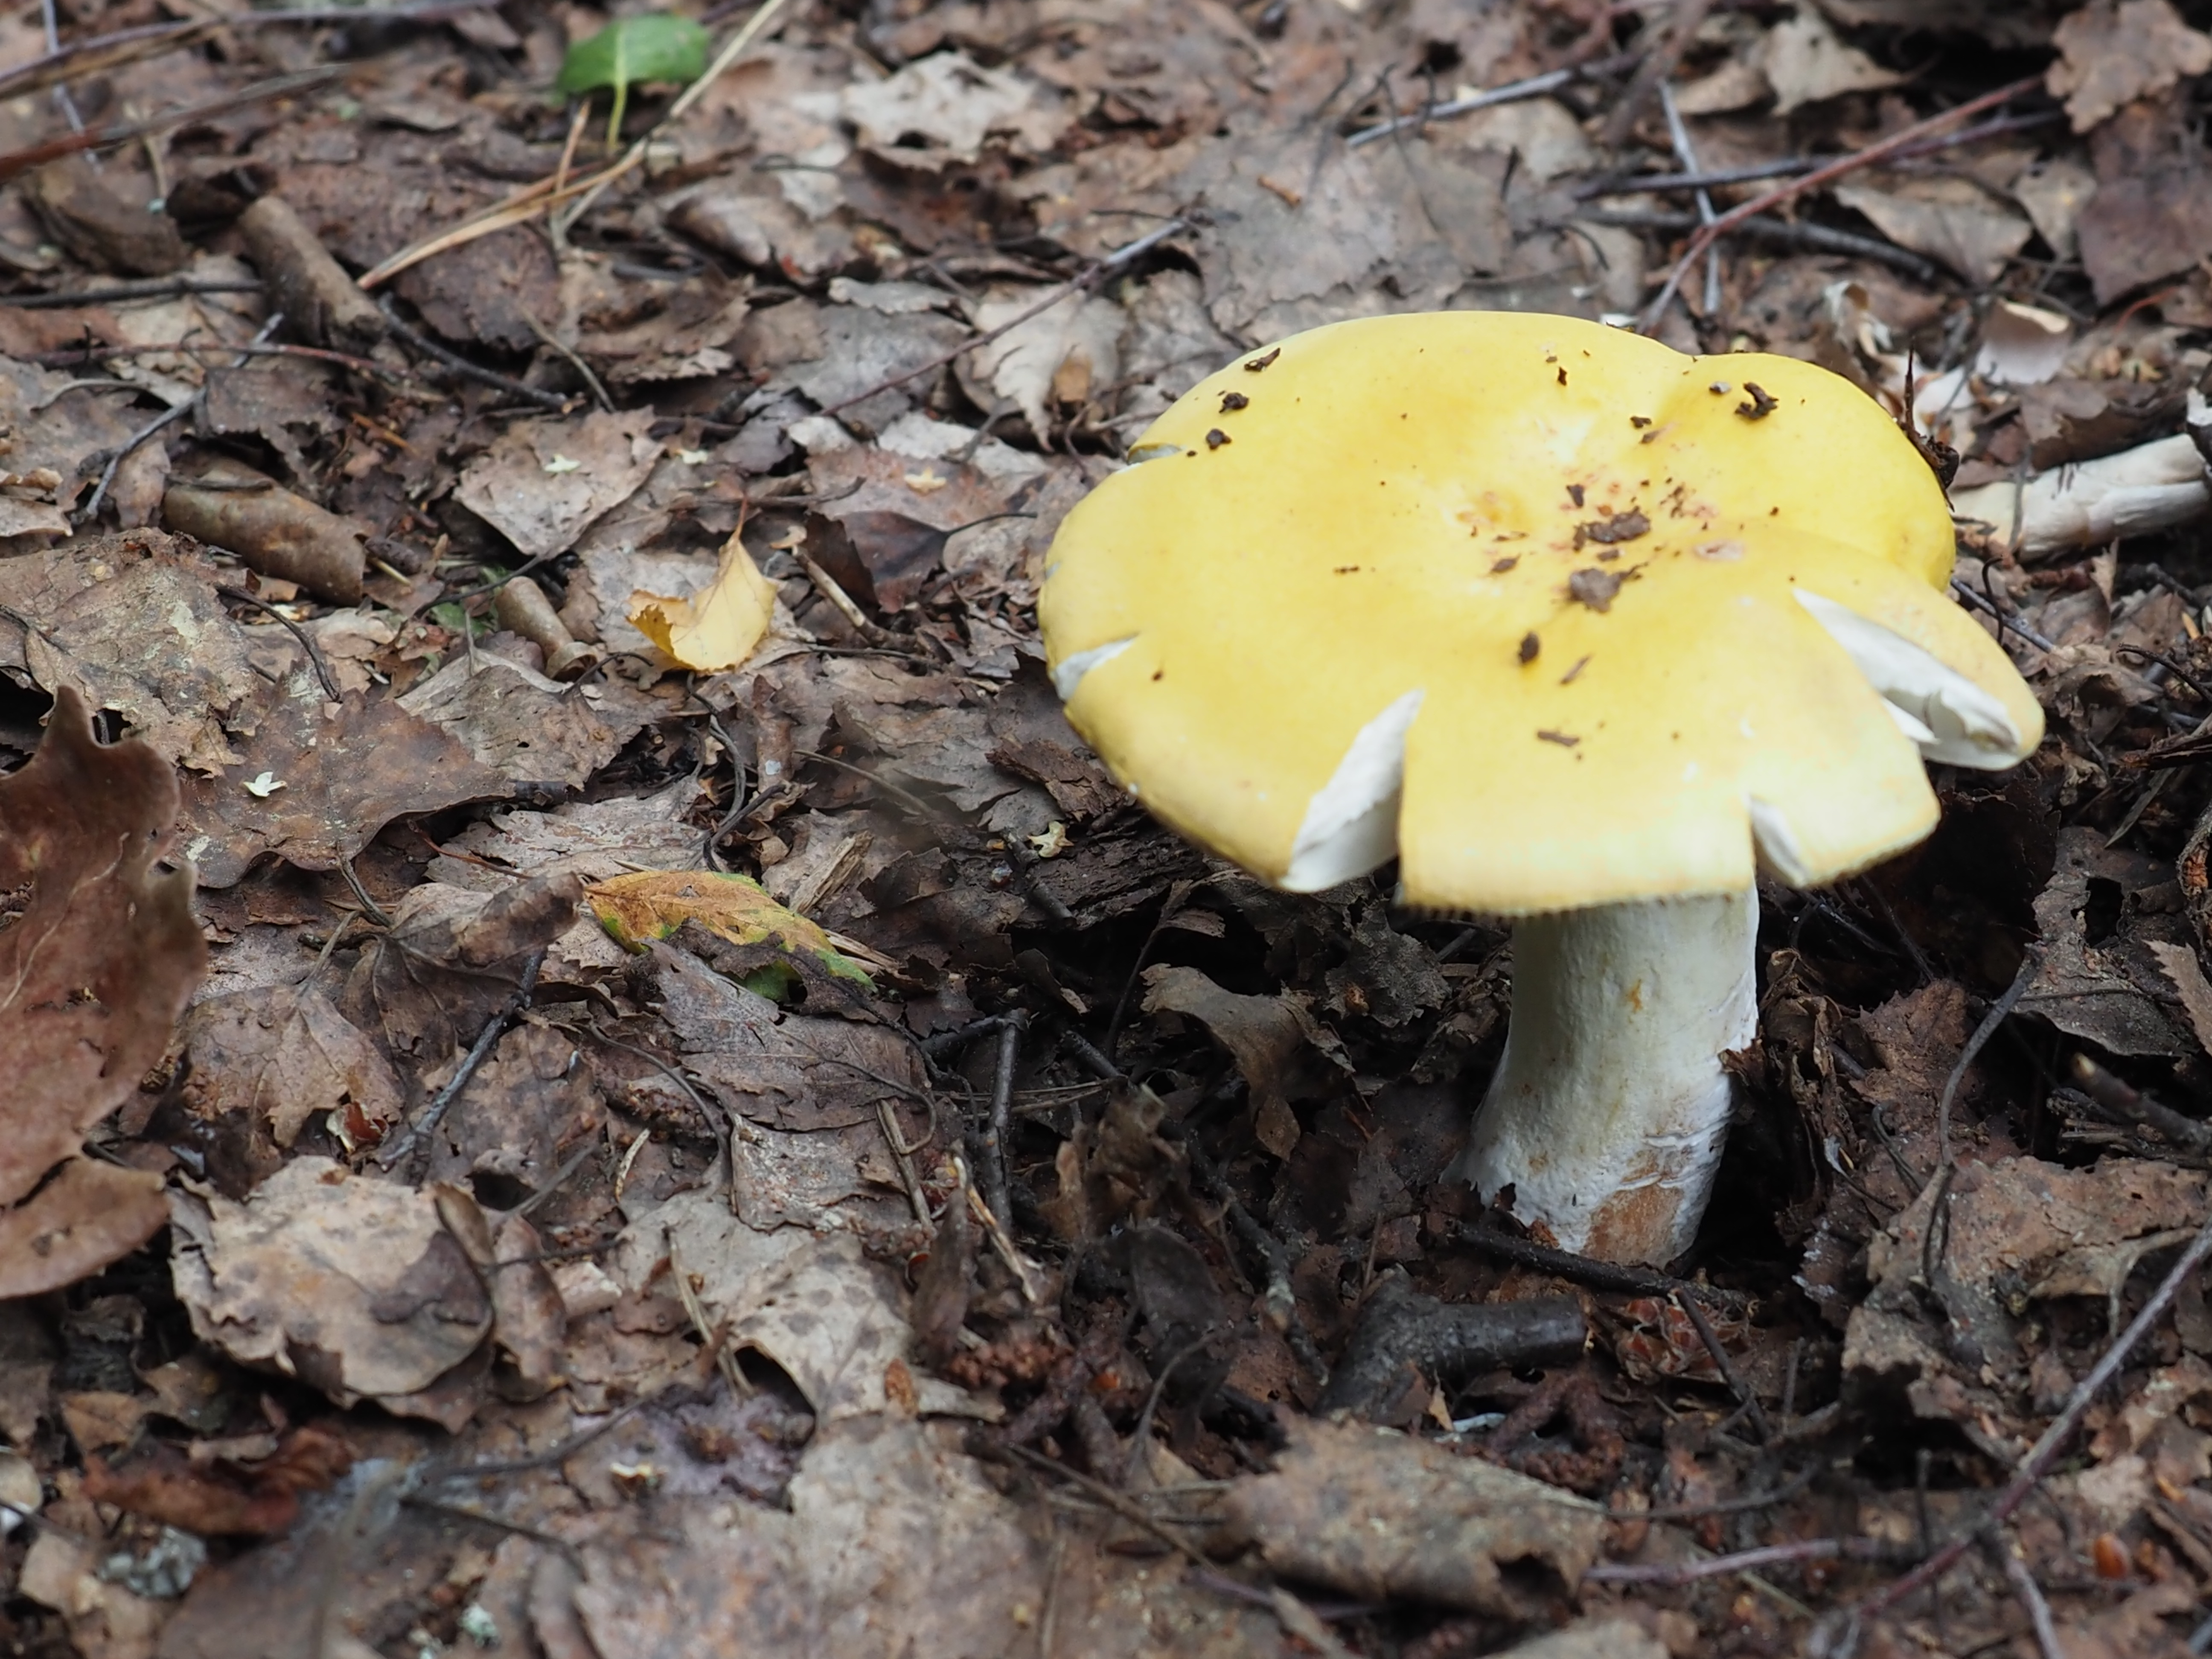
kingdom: Fungi
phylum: Basidiomycota
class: Agaricomycetes
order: Russulales
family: Russulaceae
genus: Russula
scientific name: Russula claroflava
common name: The yellow swamp brittlegill
